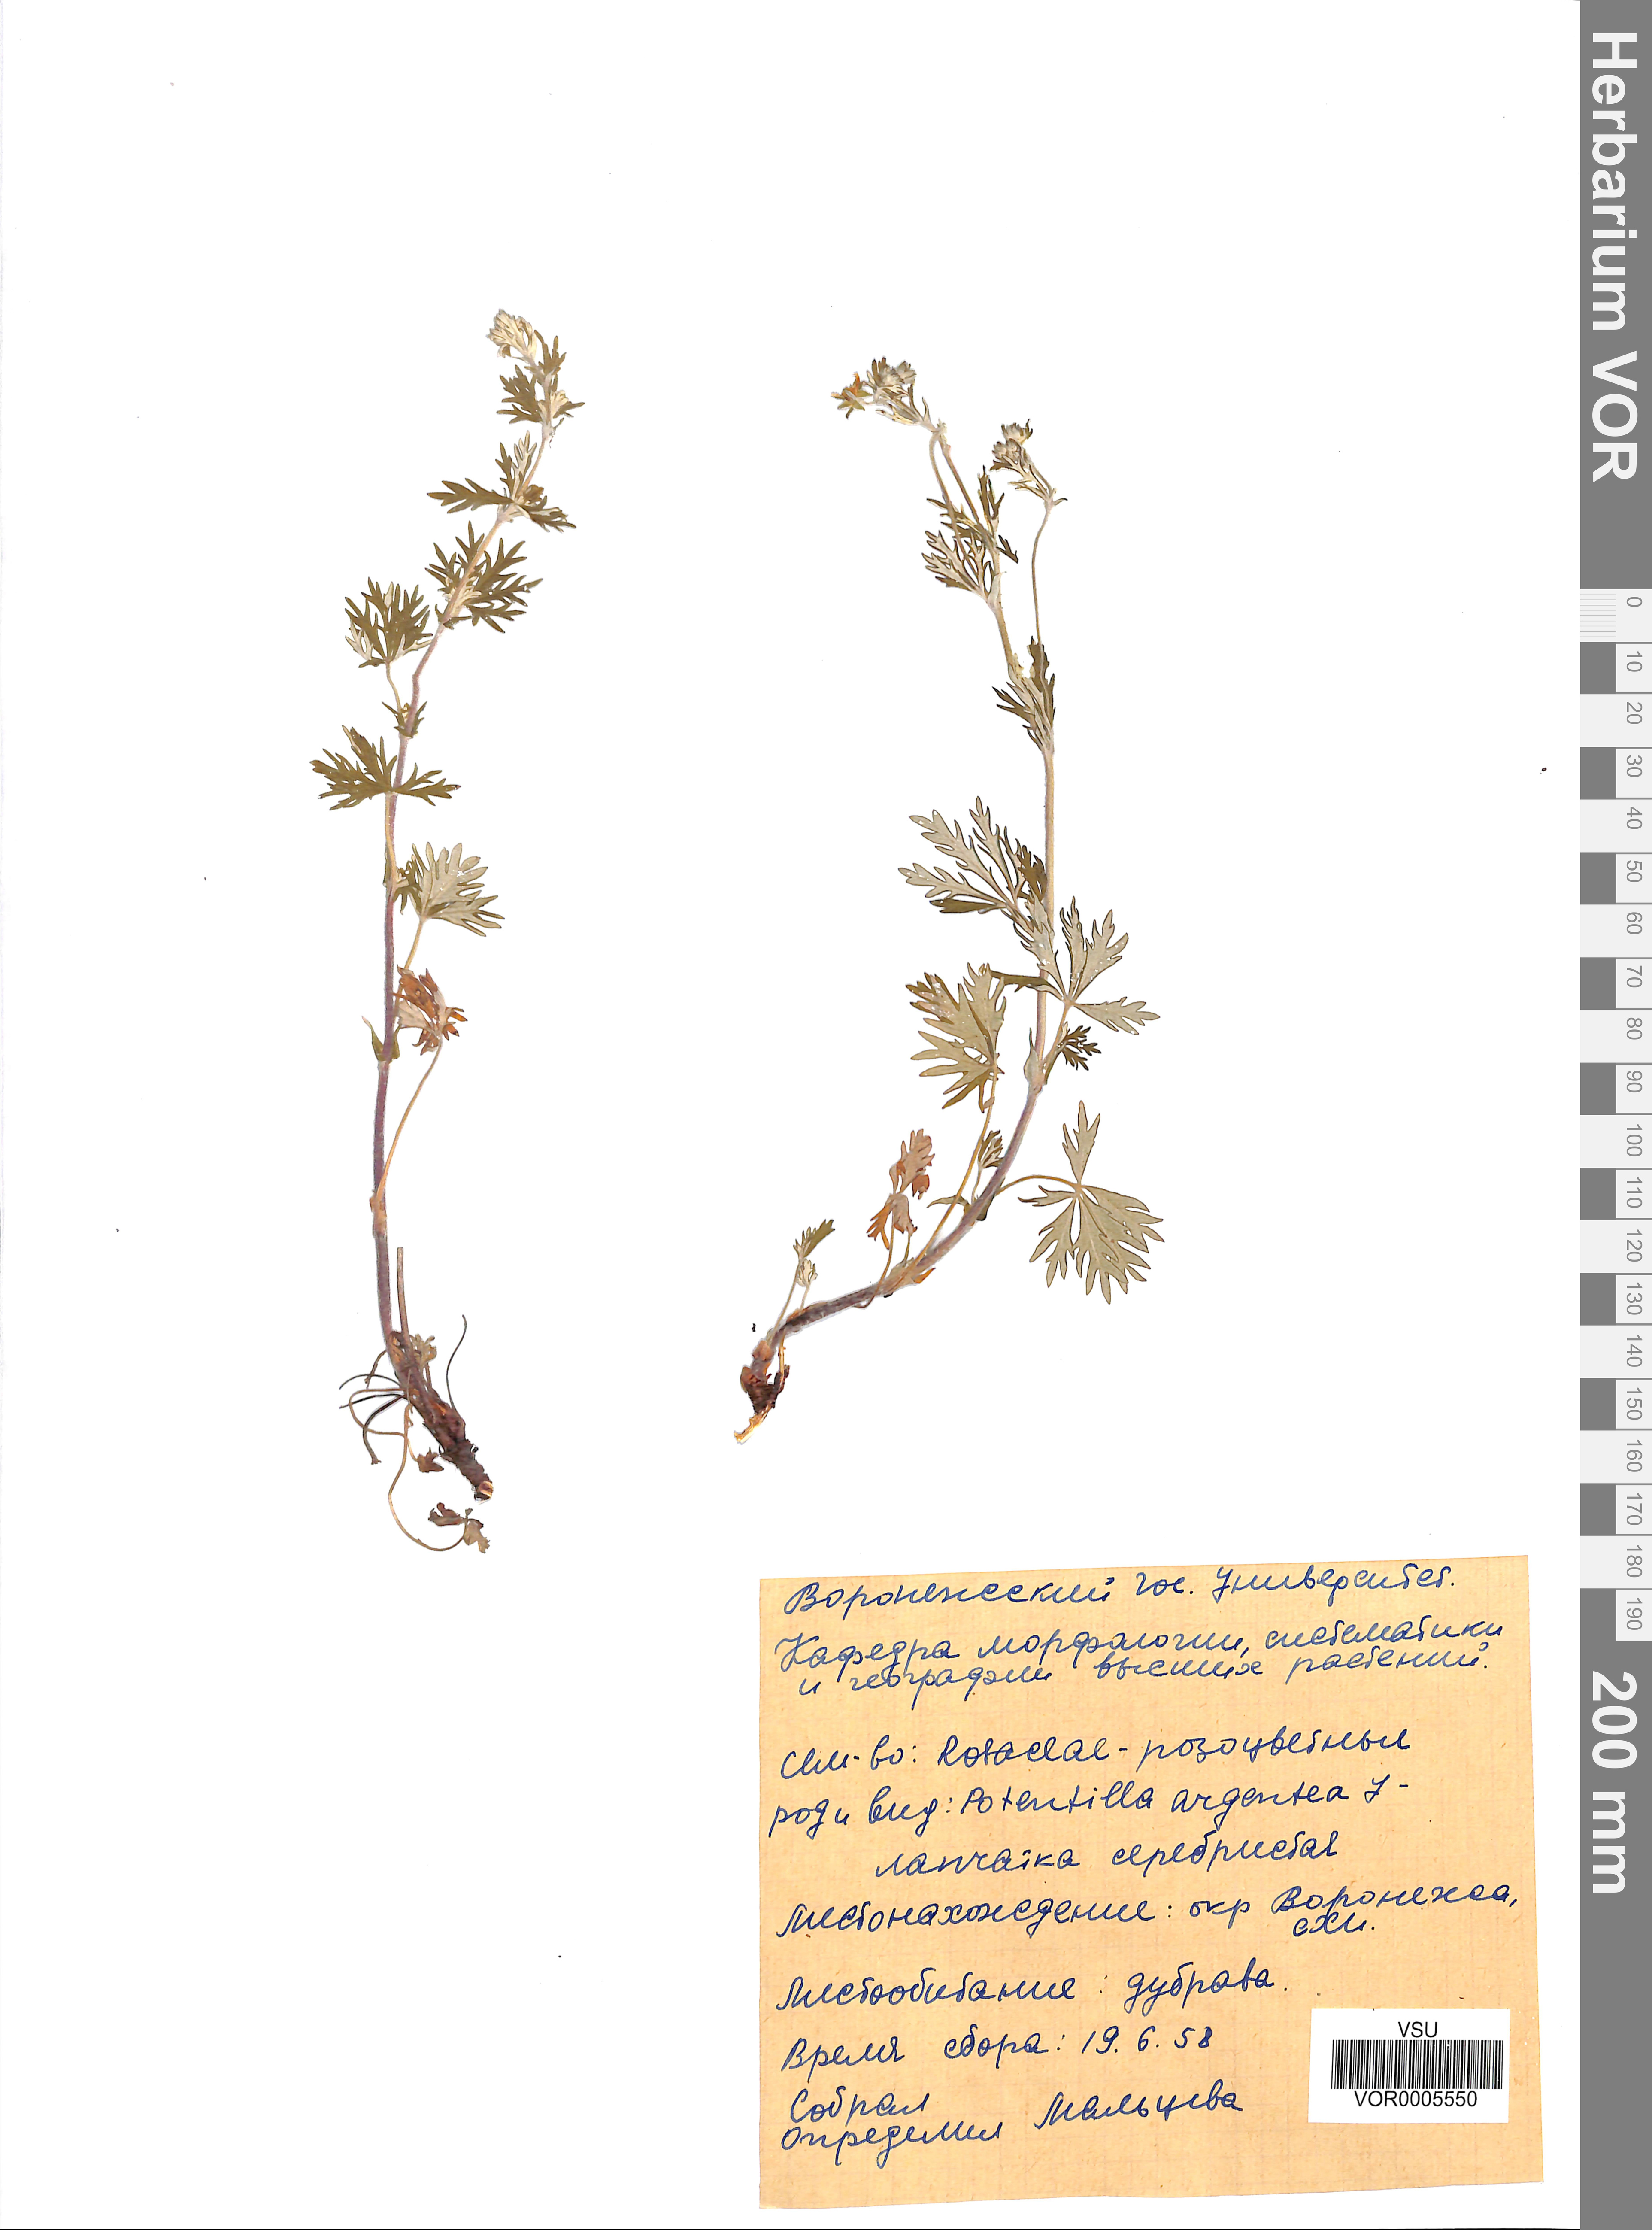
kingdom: Plantae
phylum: Tracheophyta
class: Magnoliopsida
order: Rosales
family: Rosaceae
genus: Potentilla
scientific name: Potentilla argentea
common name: Hoary cinquefoil
